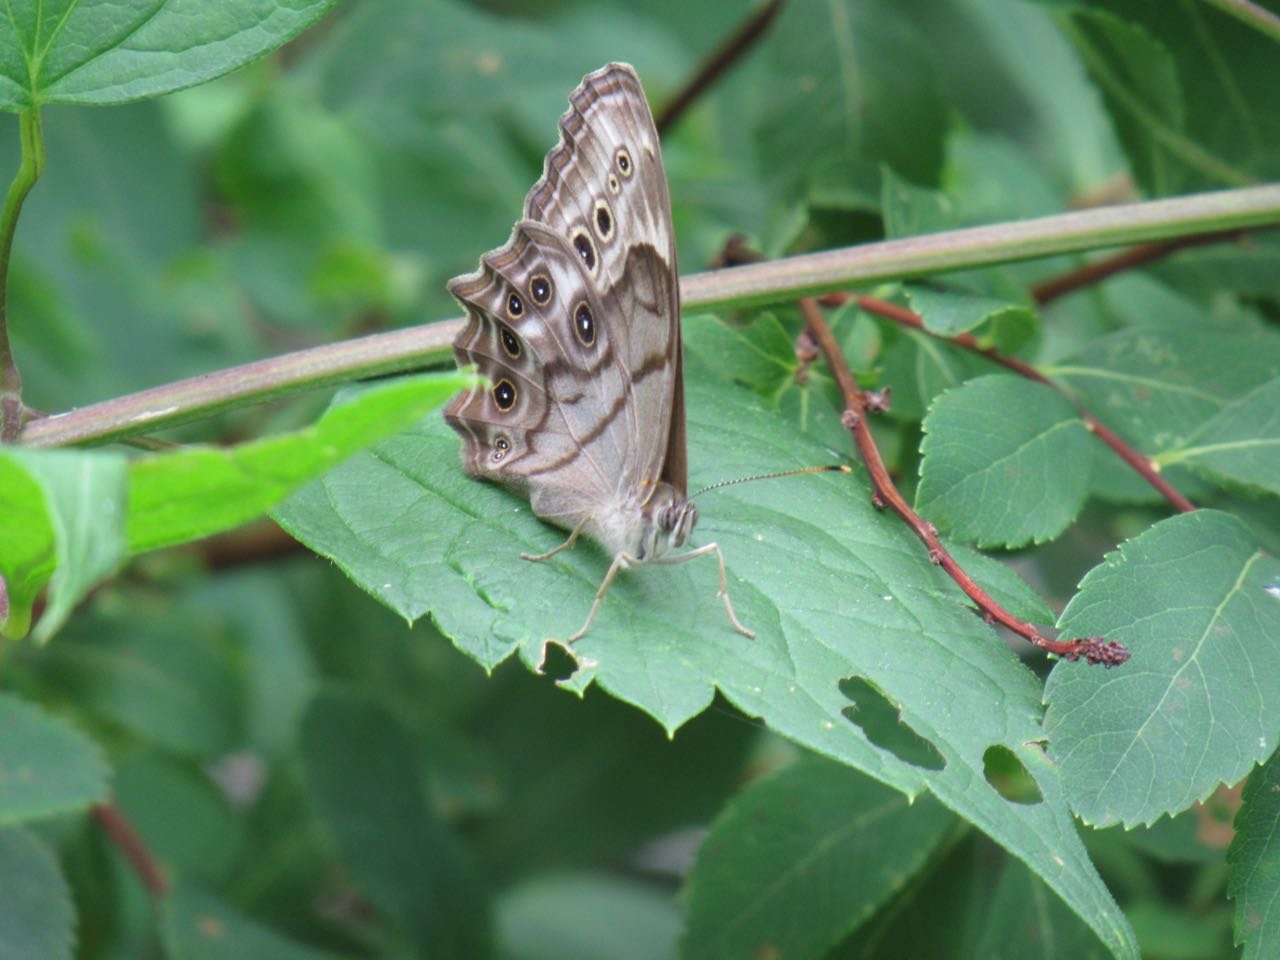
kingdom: Animalia
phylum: Arthropoda
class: Insecta
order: Lepidoptera
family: Nymphalidae
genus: Lethe
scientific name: Lethe anthedon
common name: Northern Pearly-Eye
